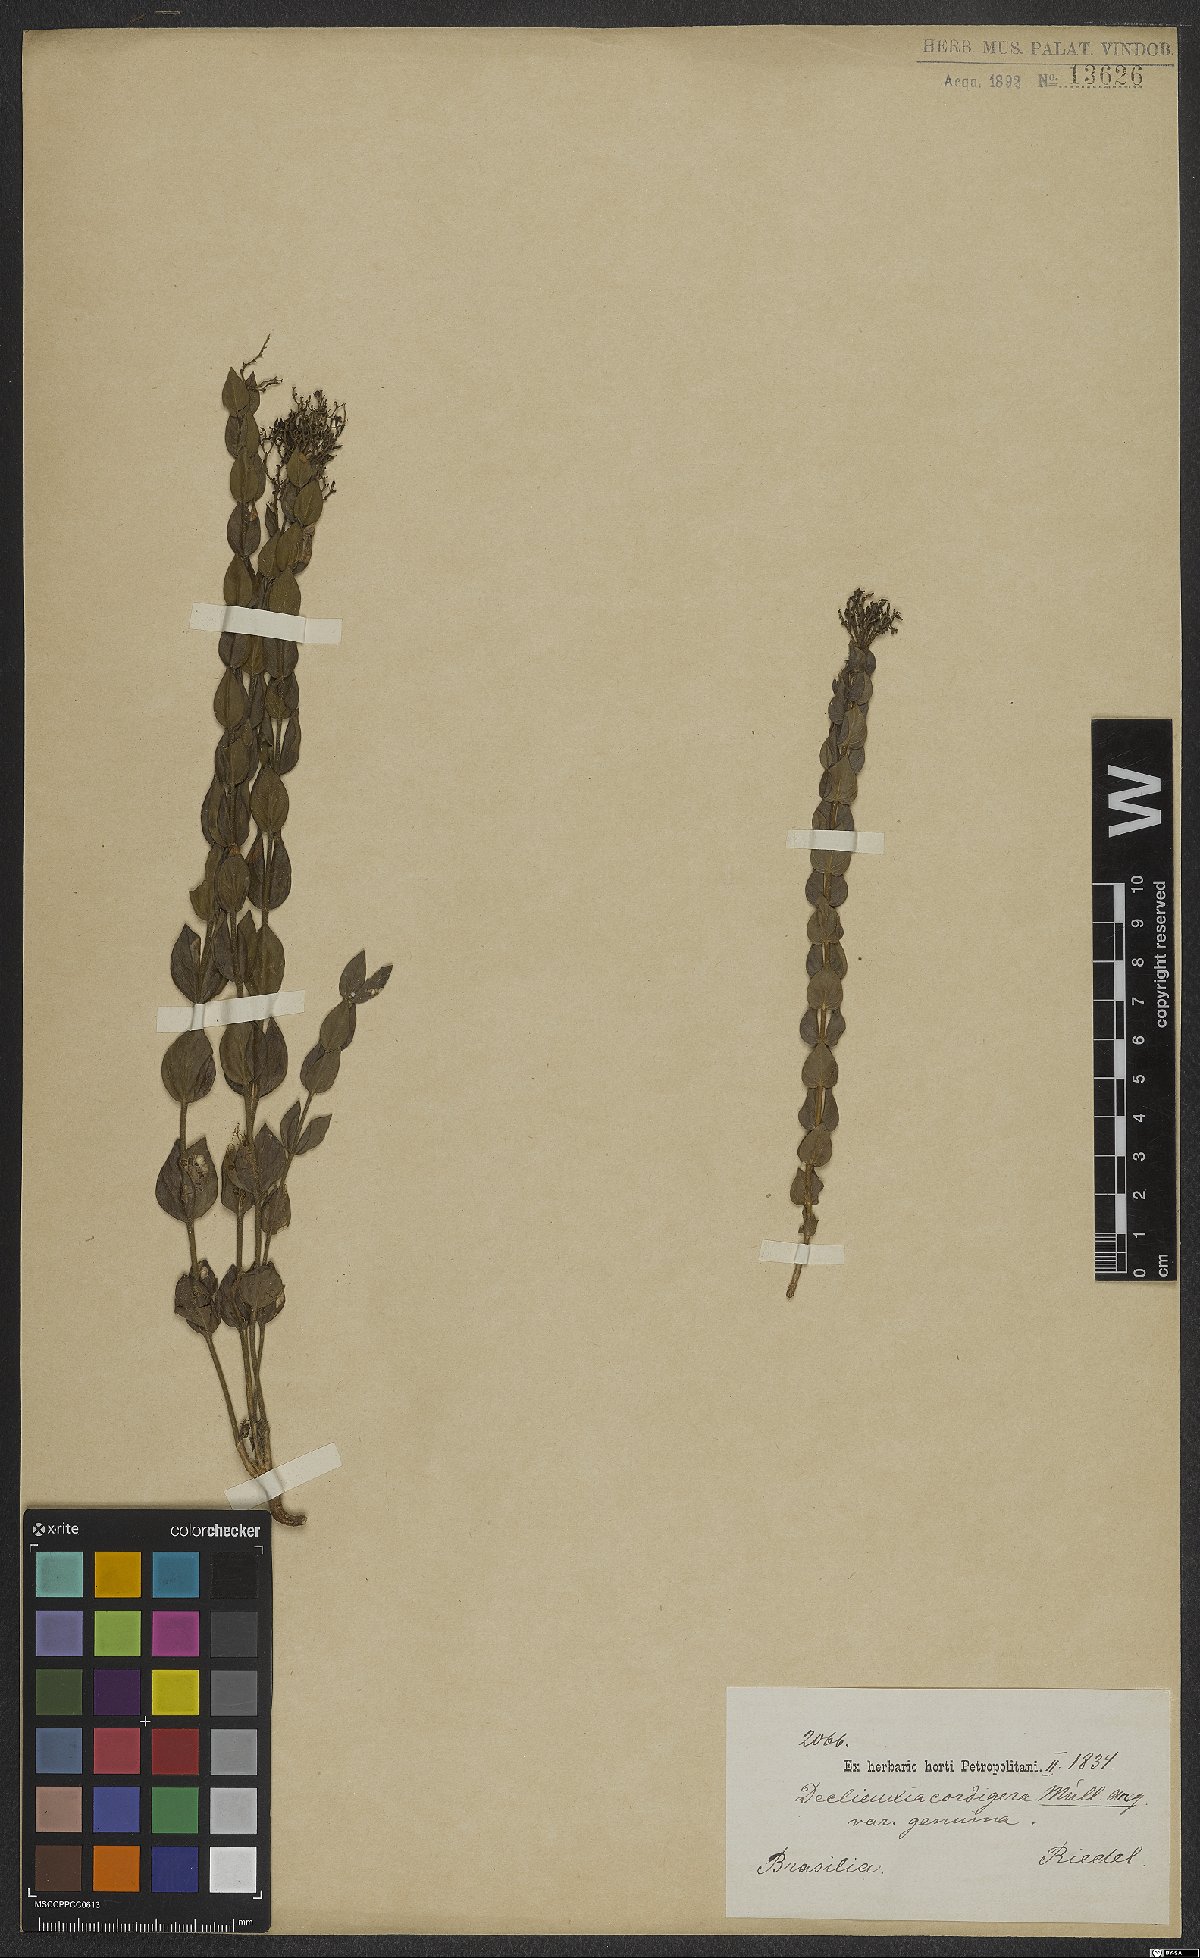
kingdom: Plantae
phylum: Tracheophyta
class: Magnoliopsida
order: Gentianales
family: Rubiaceae
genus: Declieuxia
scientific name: Declieuxia cordigera
